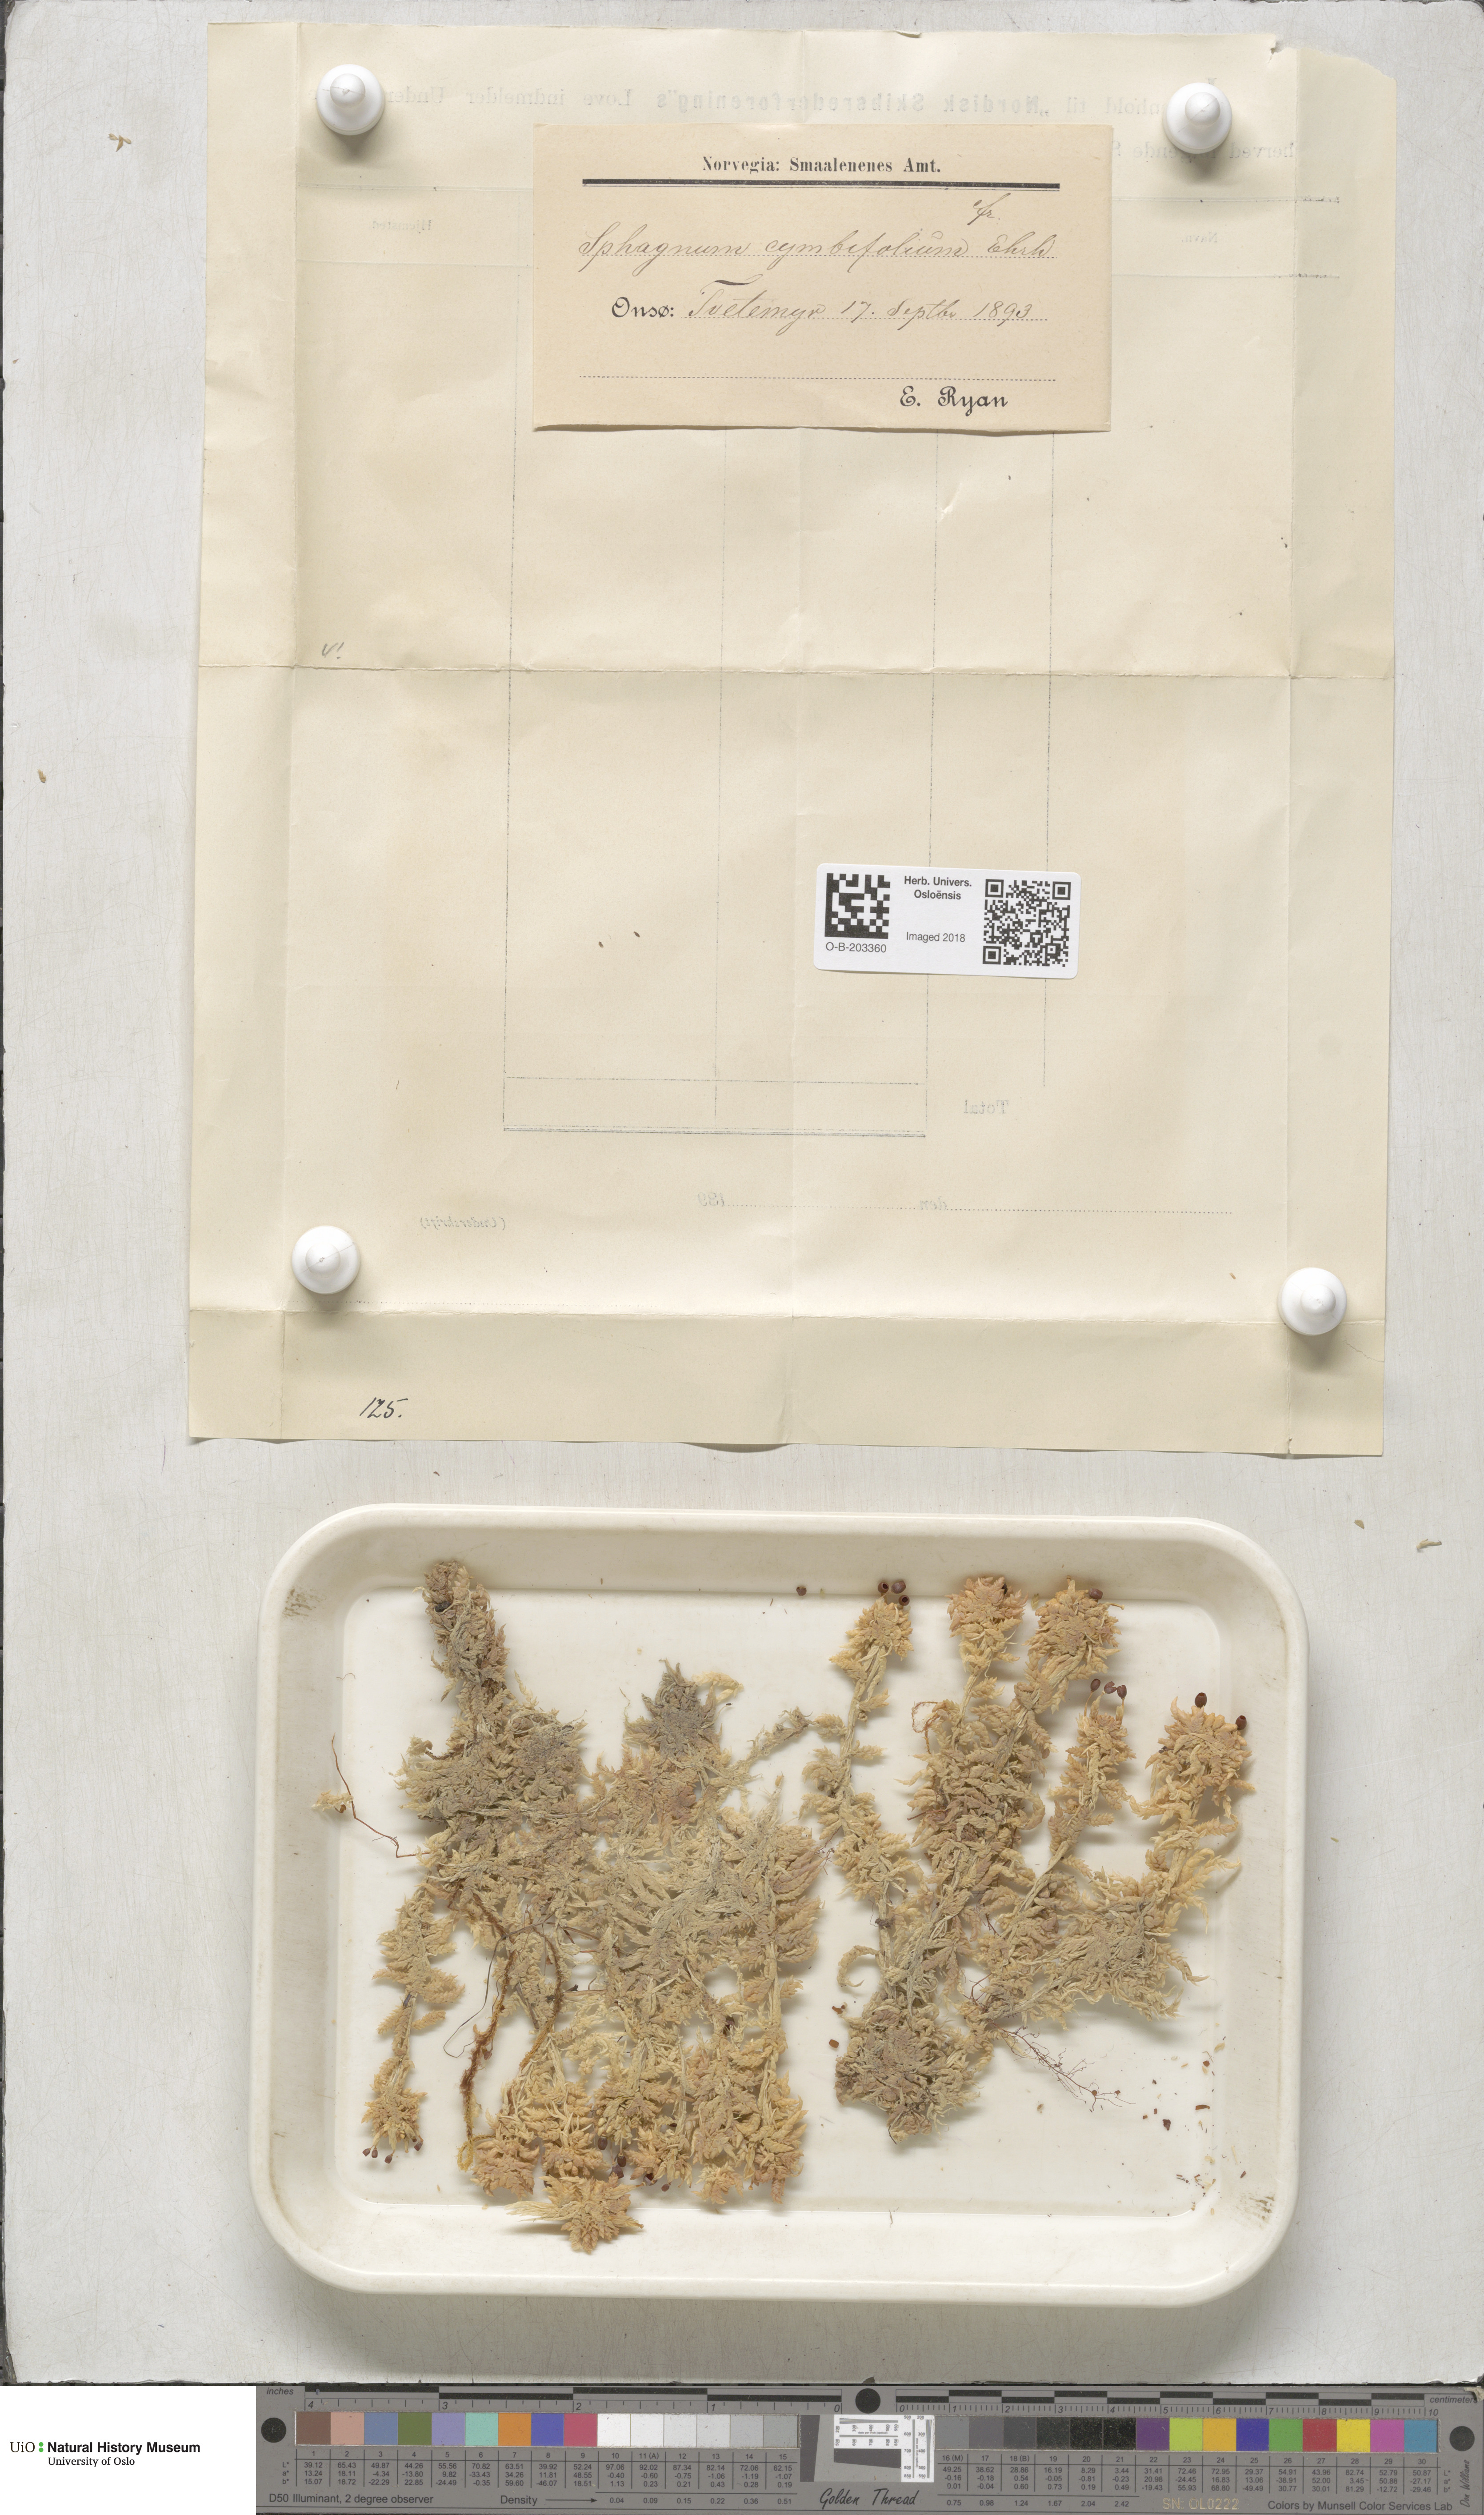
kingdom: Plantae
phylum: Bryophyta
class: Sphagnopsida
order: Sphagnales
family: Sphagnaceae
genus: Sphagnum
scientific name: Sphagnum palustre
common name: Blunt-leaved bog-moss
